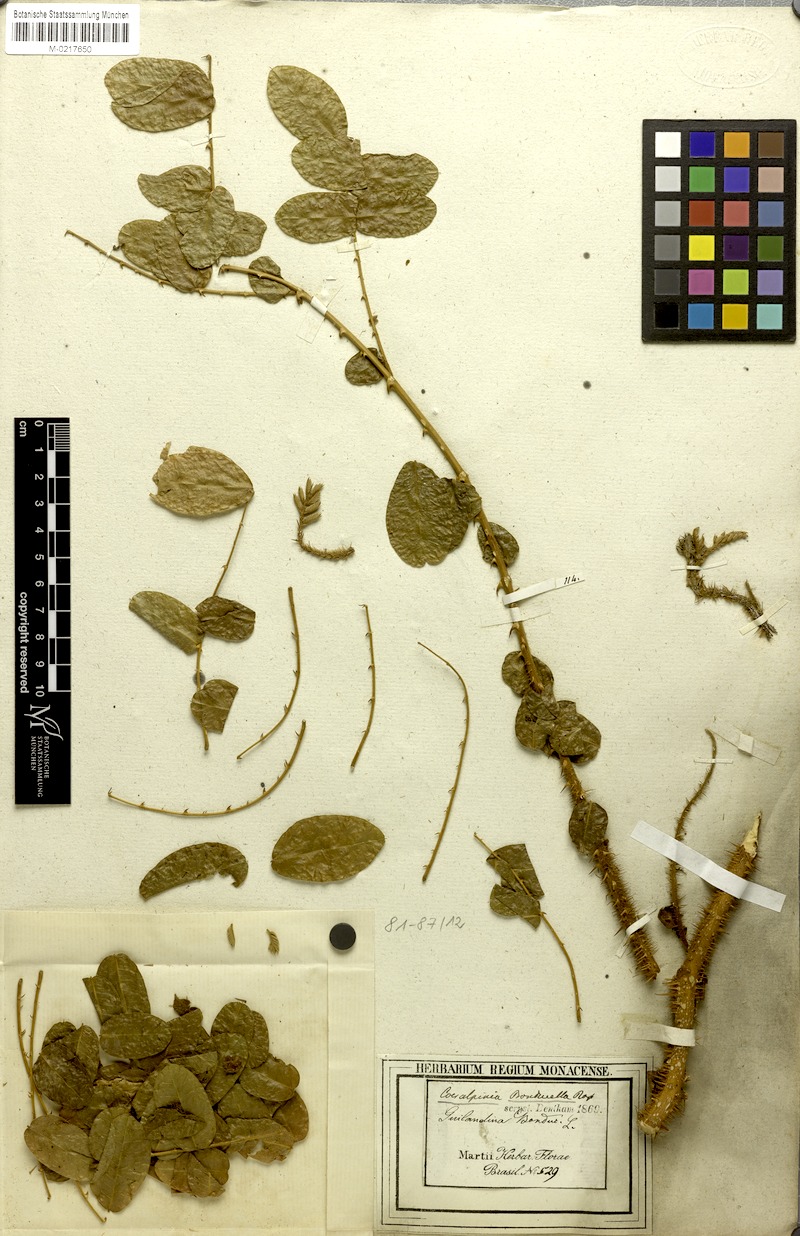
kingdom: Plantae
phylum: Tracheophyta
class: Magnoliopsida
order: Fabales
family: Fabaceae
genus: Guilandina
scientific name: Guilandina bonduc
